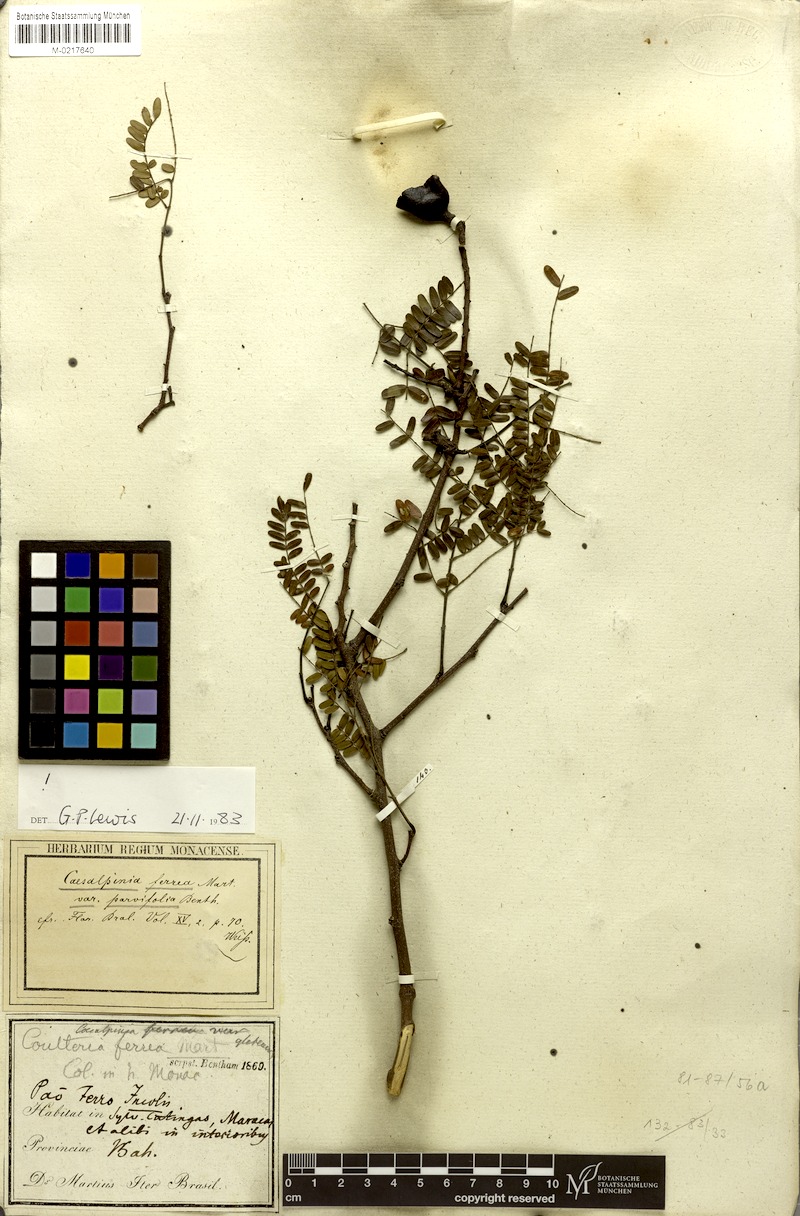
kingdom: Plantae
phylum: Tracheophyta
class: Magnoliopsida
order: Fabales
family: Fabaceae
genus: Libidibia
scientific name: Libidibia ferrea
